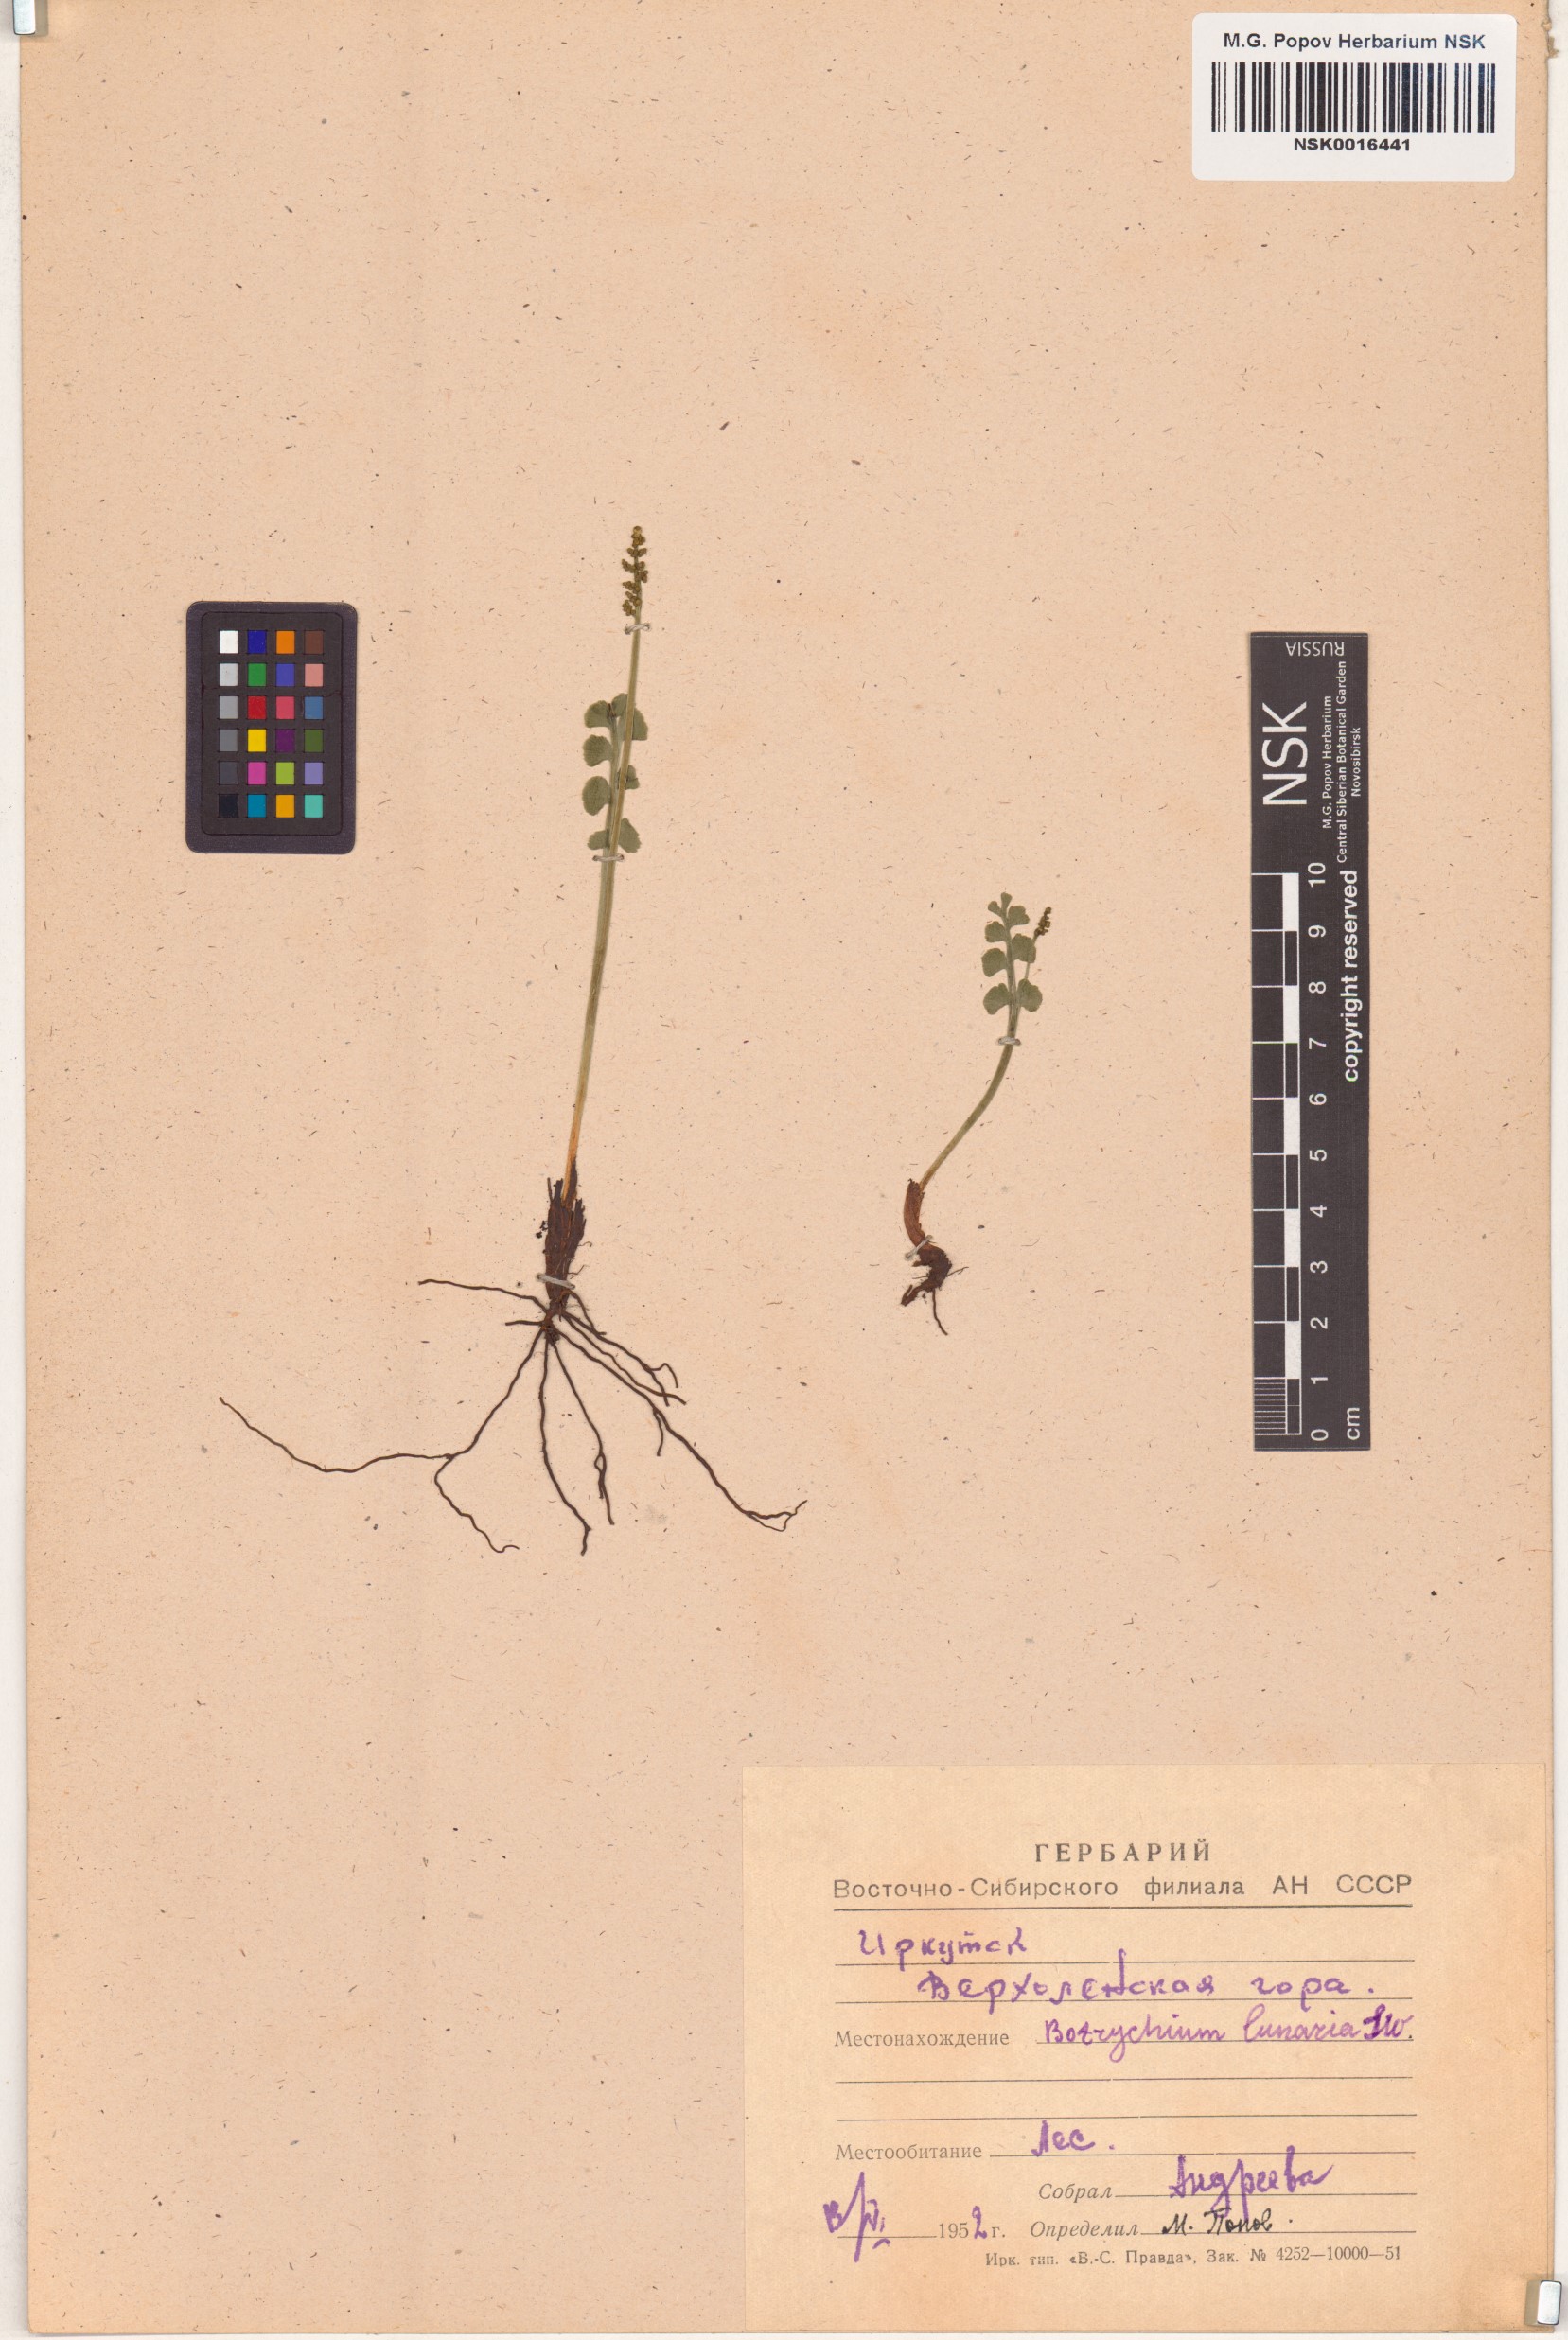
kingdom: Plantae
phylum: Tracheophyta
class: Polypodiopsida
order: Ophioglossales
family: Ophioglossaceae
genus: Botrychium
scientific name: Botrychium lunaria
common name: Moonwort
